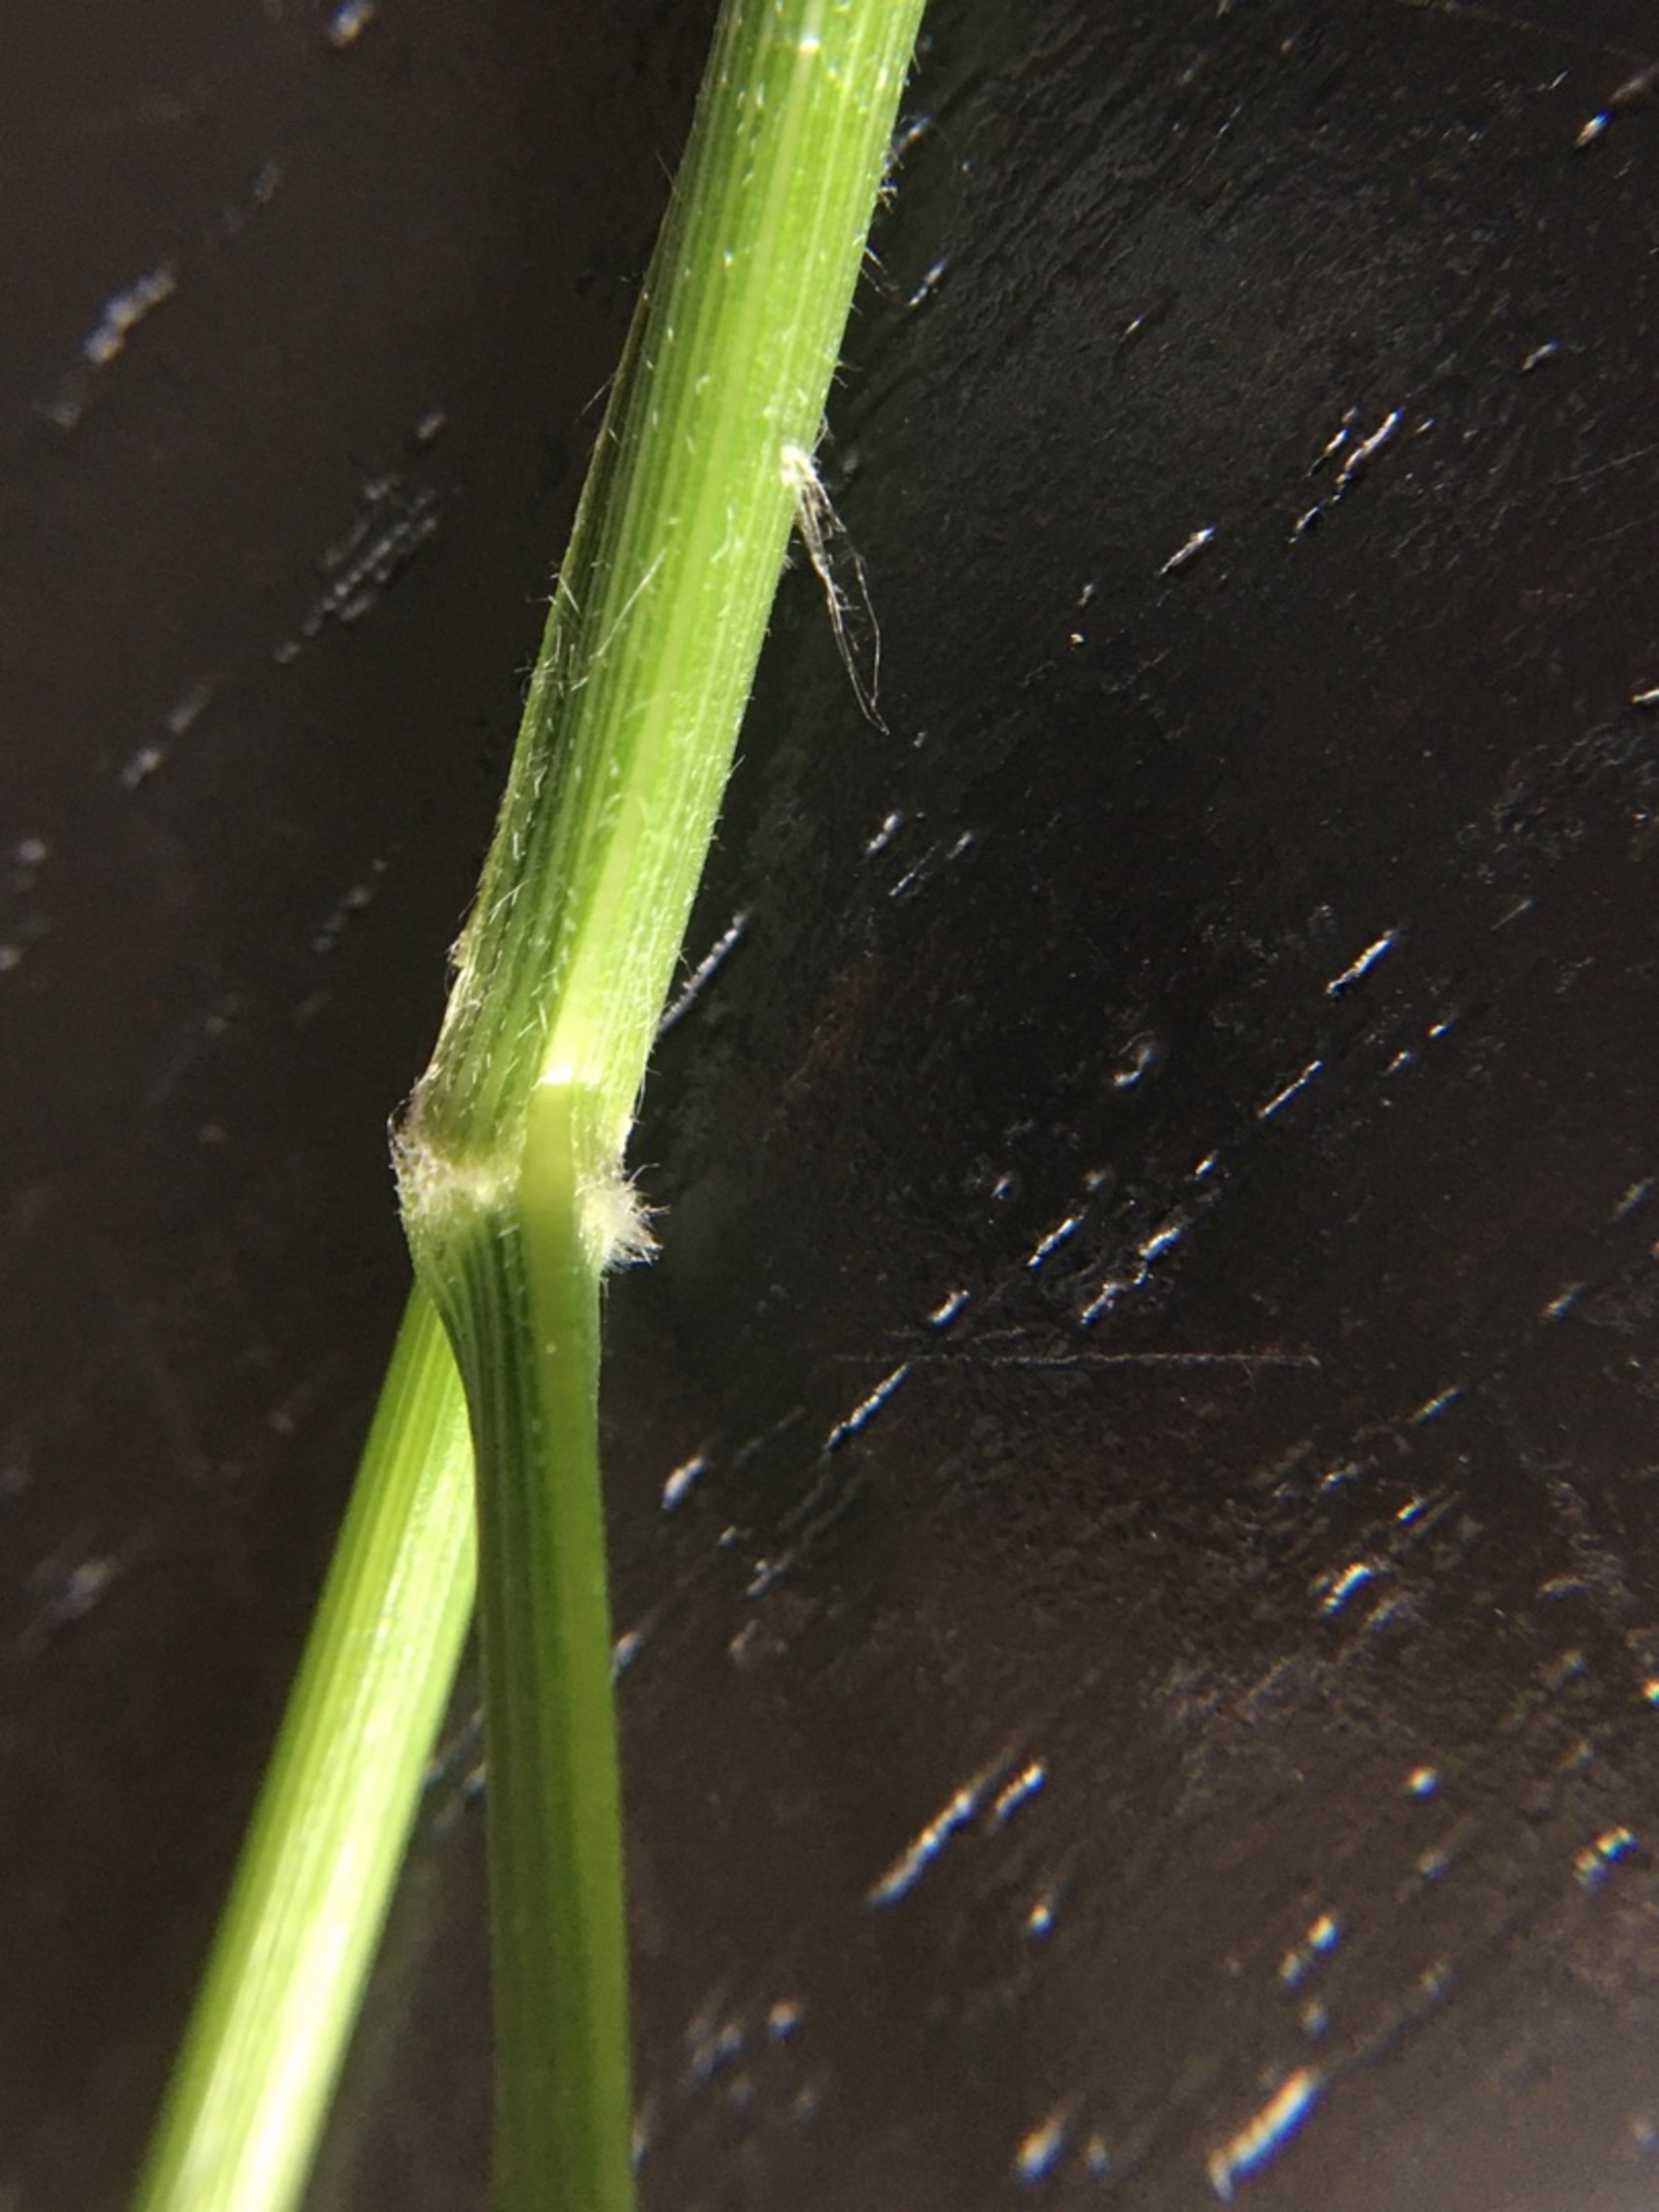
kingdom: Plantae
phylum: Tracheophyta
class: Liliopsida
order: Poales
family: Poaceae
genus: Calamagrostis
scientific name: Calamagrostis arundinacea
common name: Skov-rørhvene
